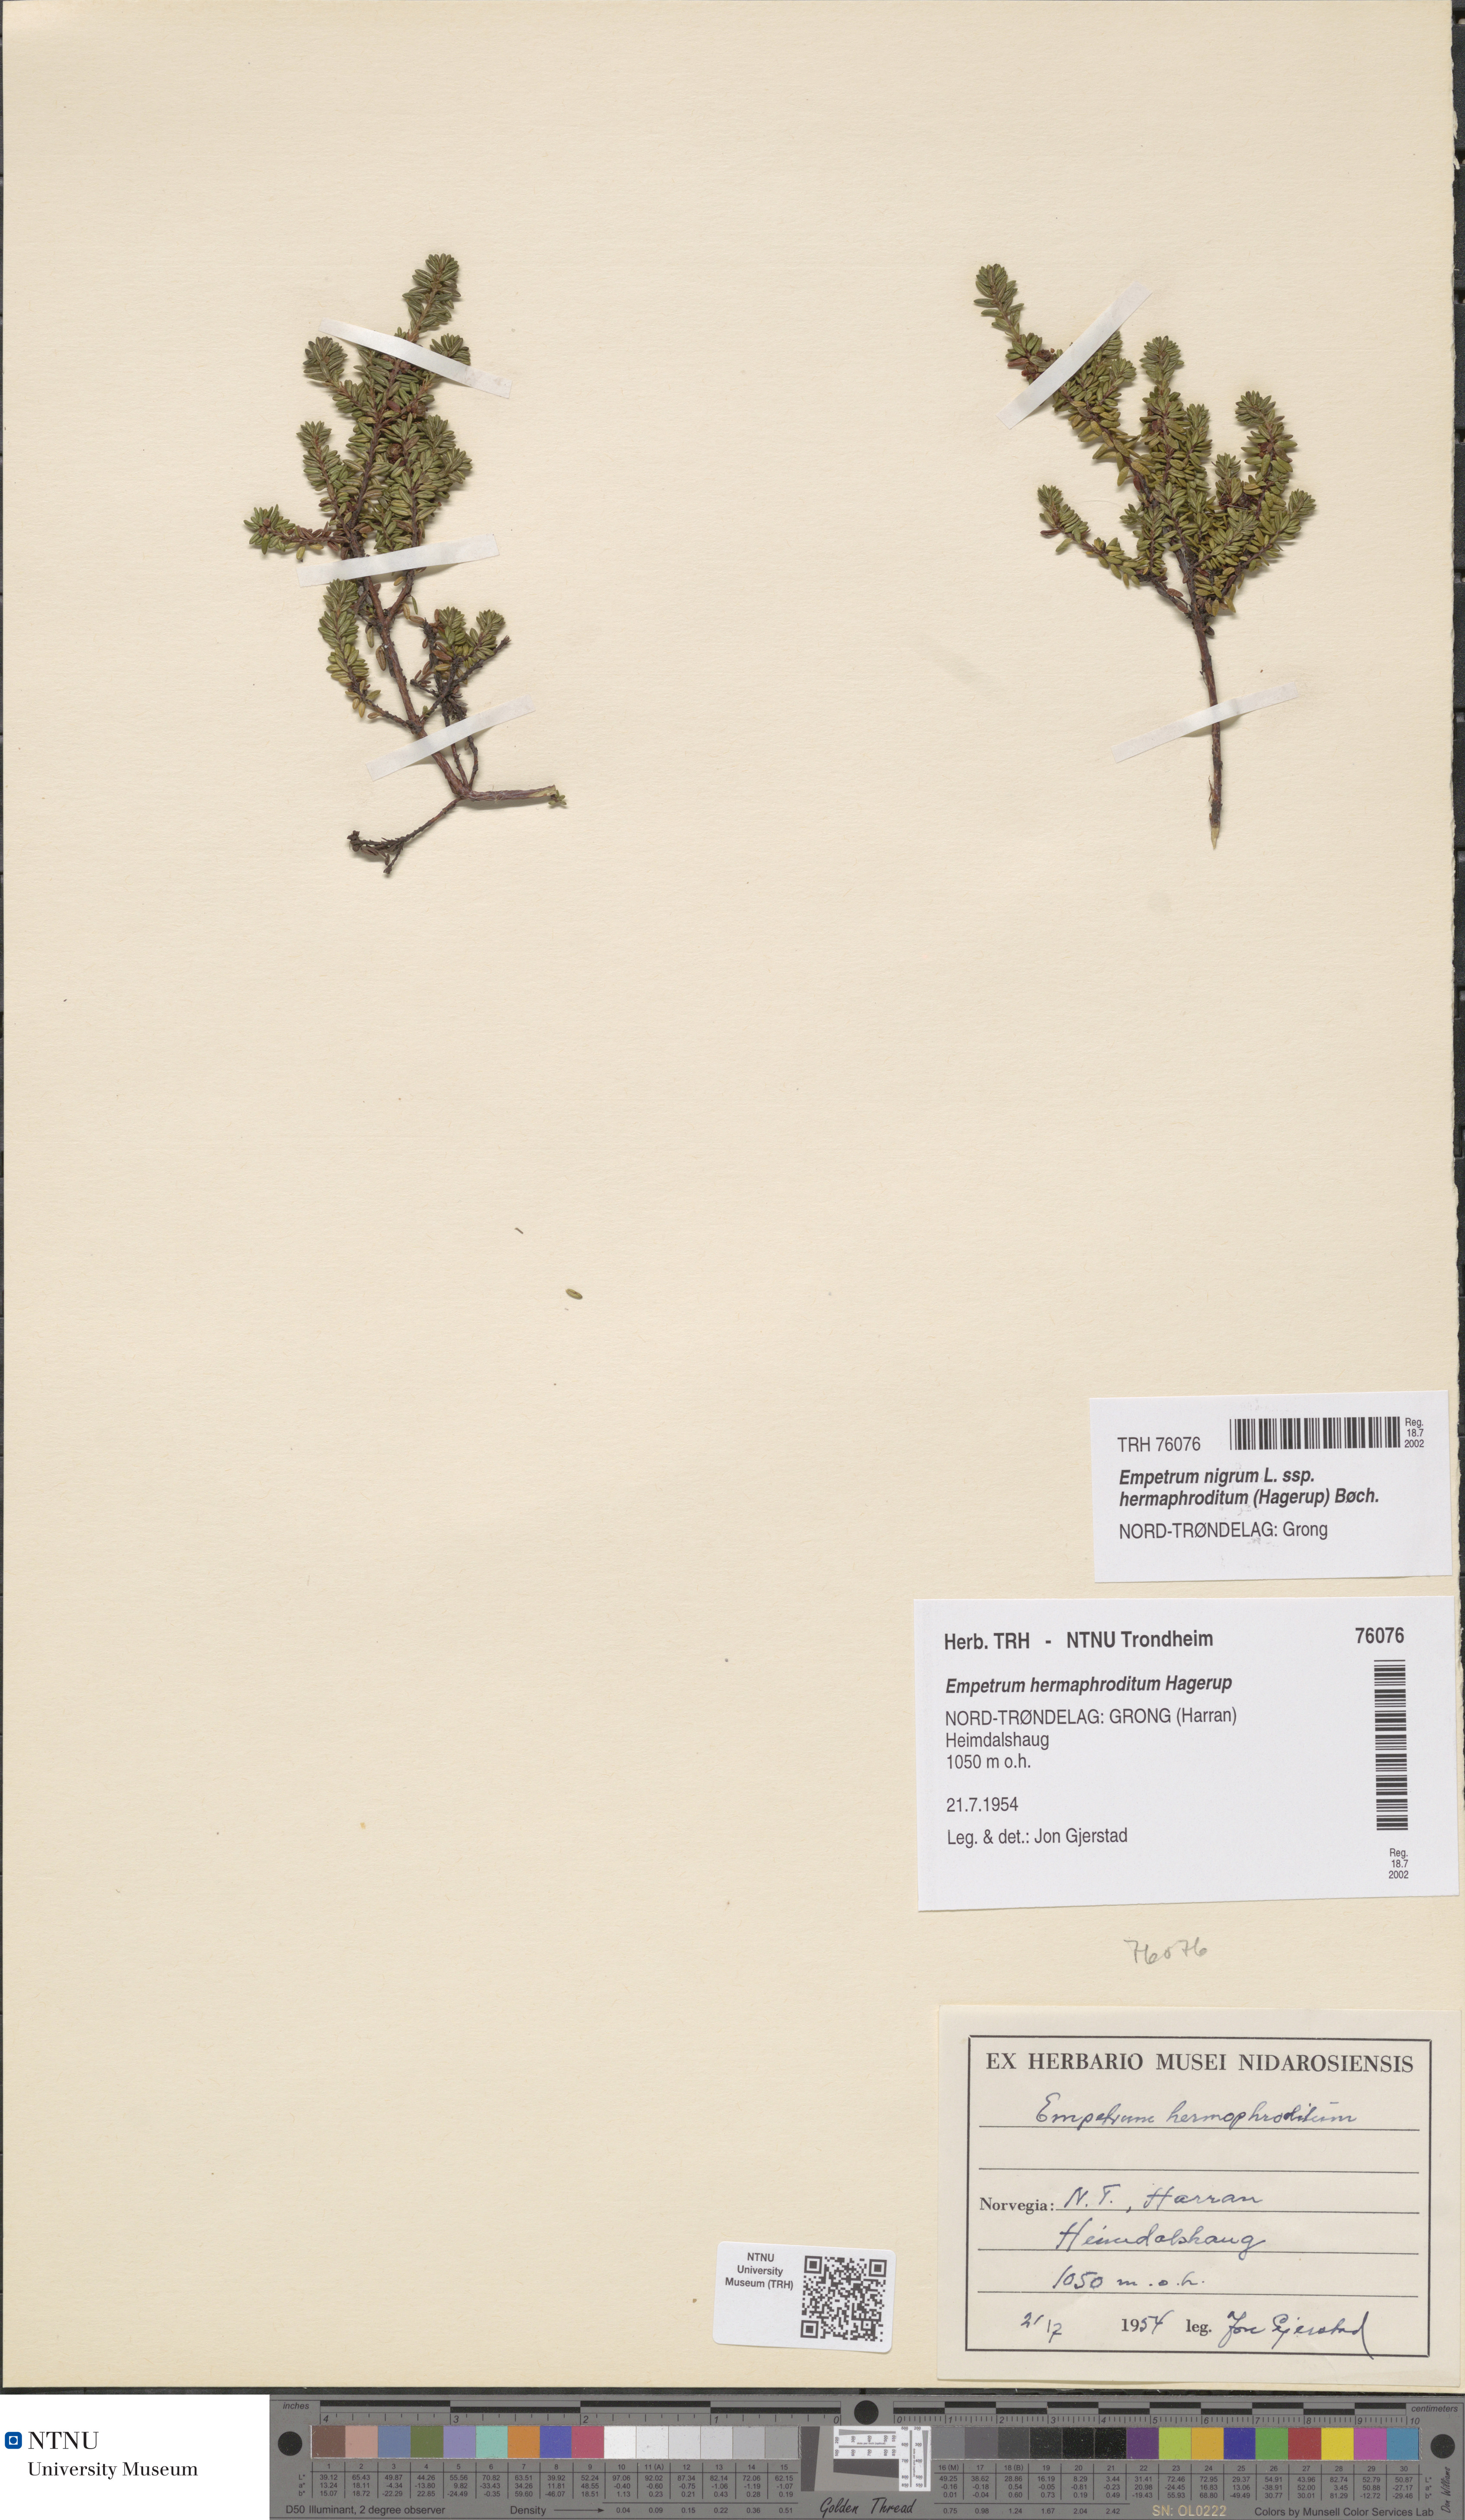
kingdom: Plantae
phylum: Tracheophyta
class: Magnoliopsida
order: Ericales
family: Ericaceae
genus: Empetrum
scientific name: Empetrum hermaphroditum
